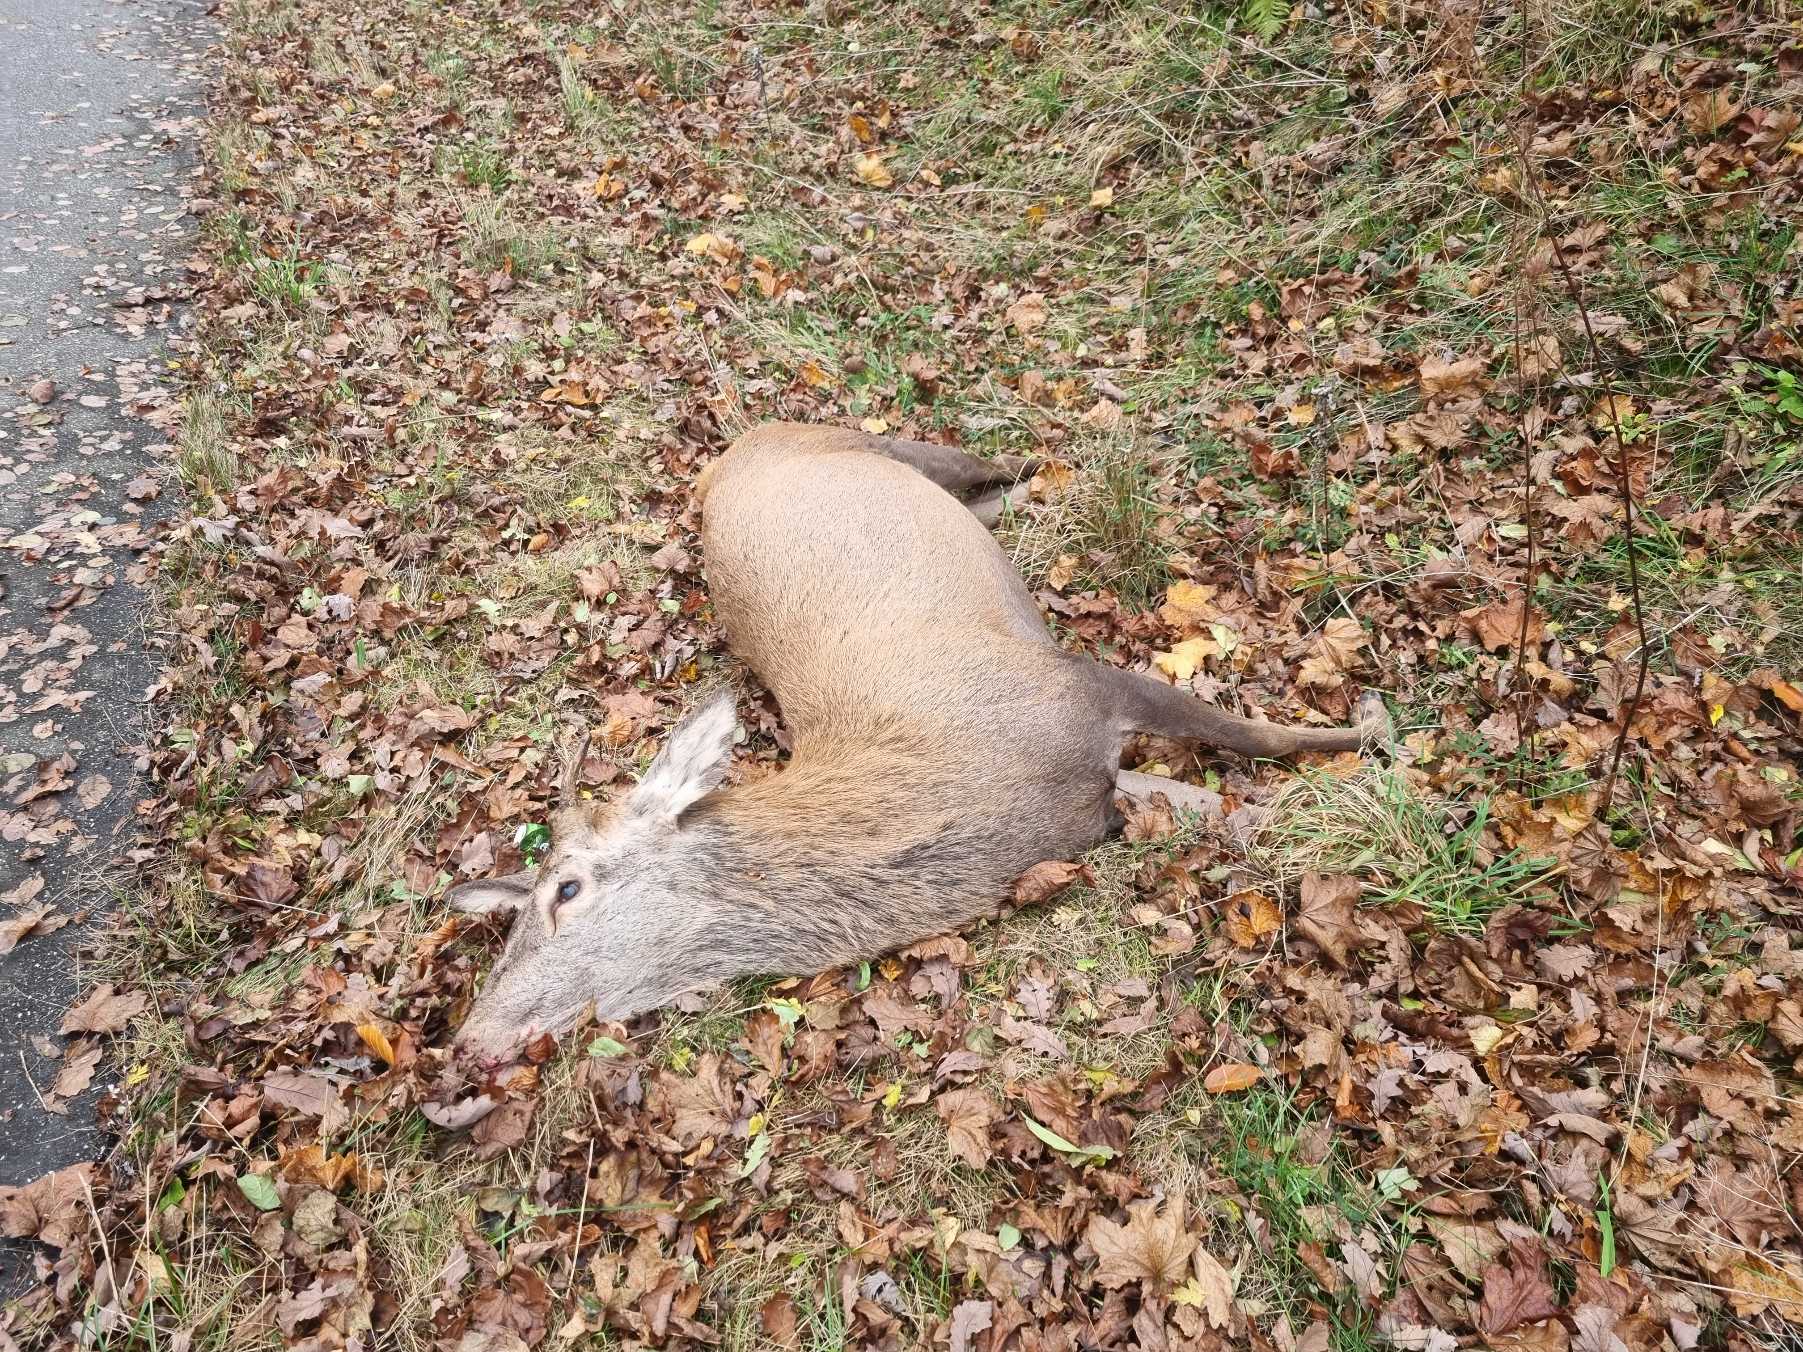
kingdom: Animalia
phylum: Chordata
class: Mammalia
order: Artiodactyla
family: Cervidae
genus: Cervus
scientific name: Cervus elaphus
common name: Krondyr
